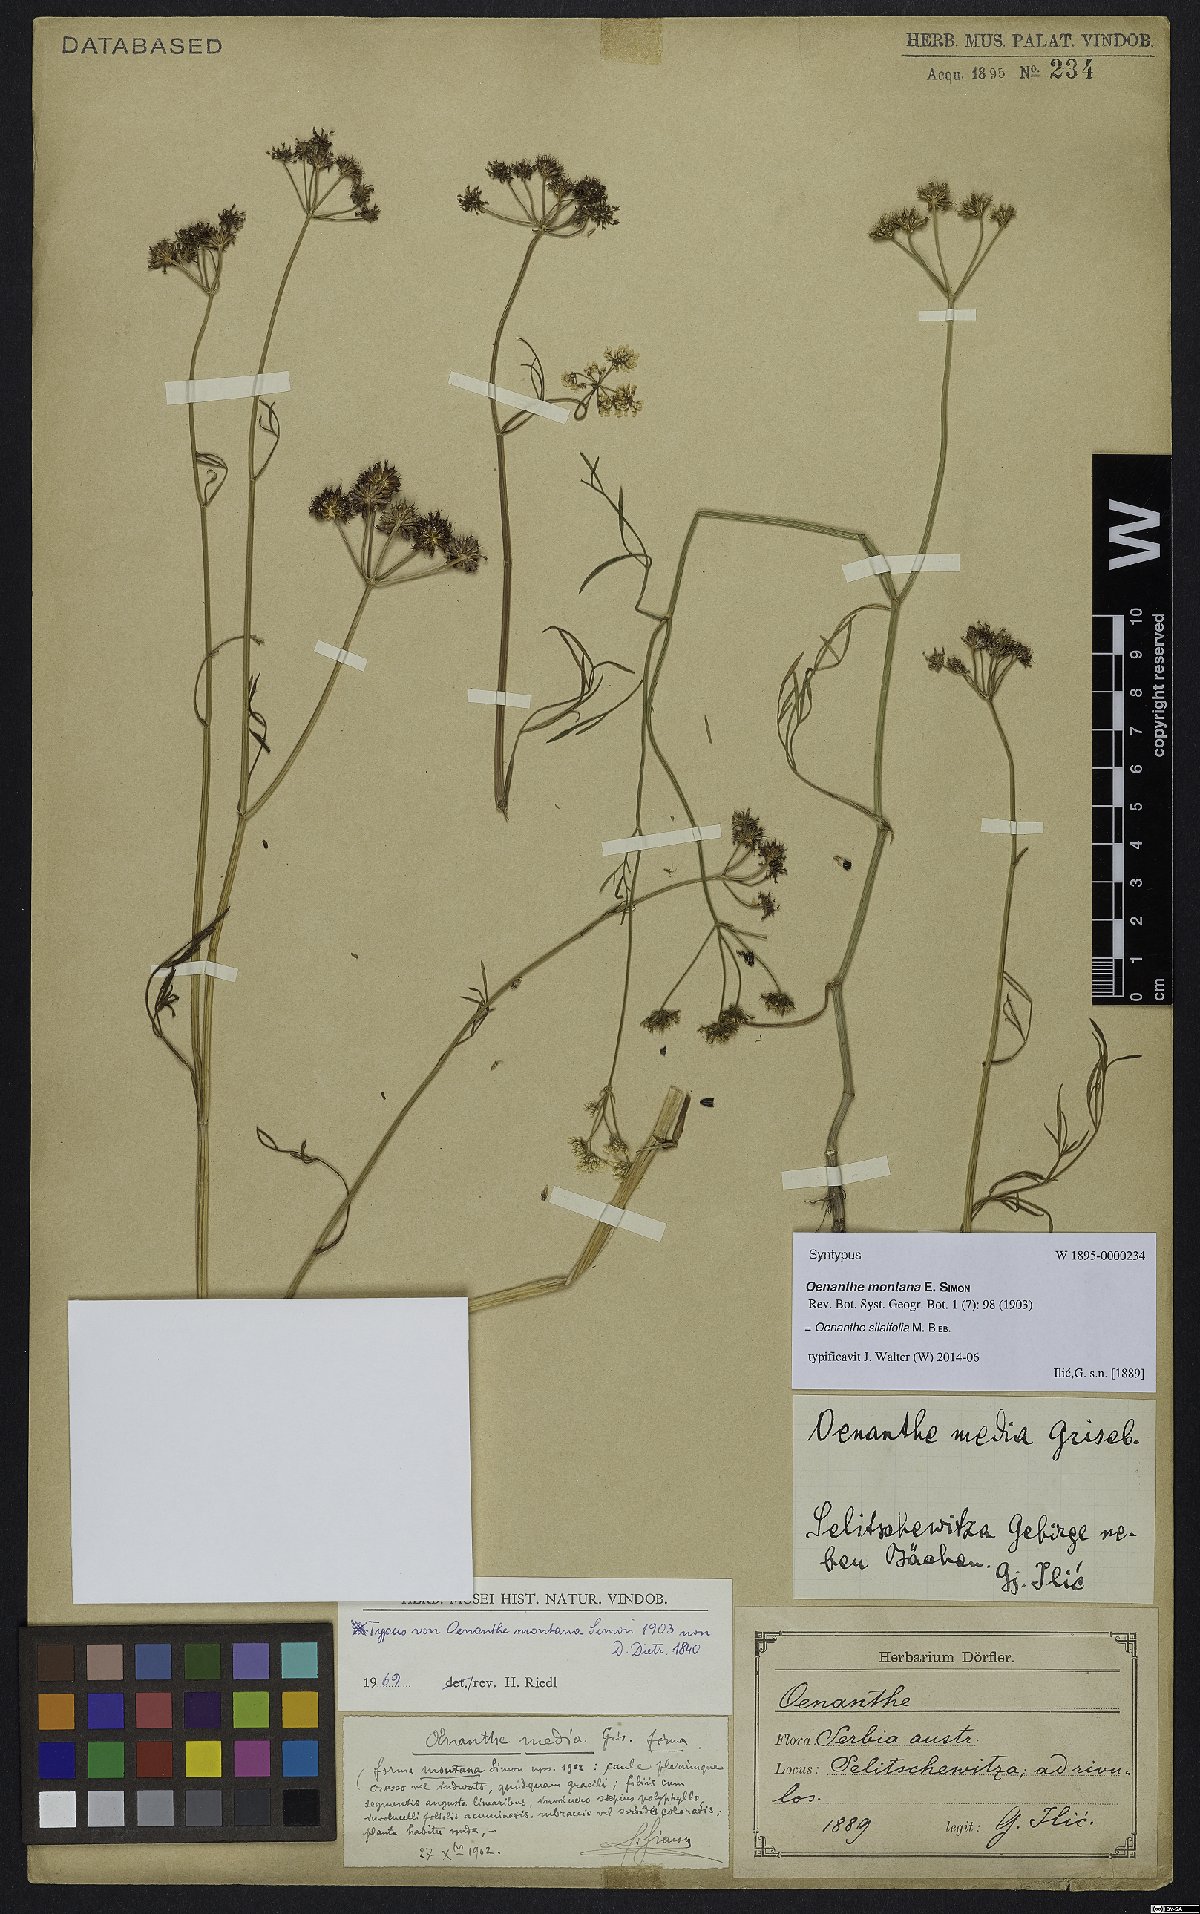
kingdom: Plantae
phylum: Tracheophyta
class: Magnoliopsida
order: Apiales
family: Apiaceae
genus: Oenanthe
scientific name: Oenanthe silaifolia
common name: Narrow-leaved water-dropwort
